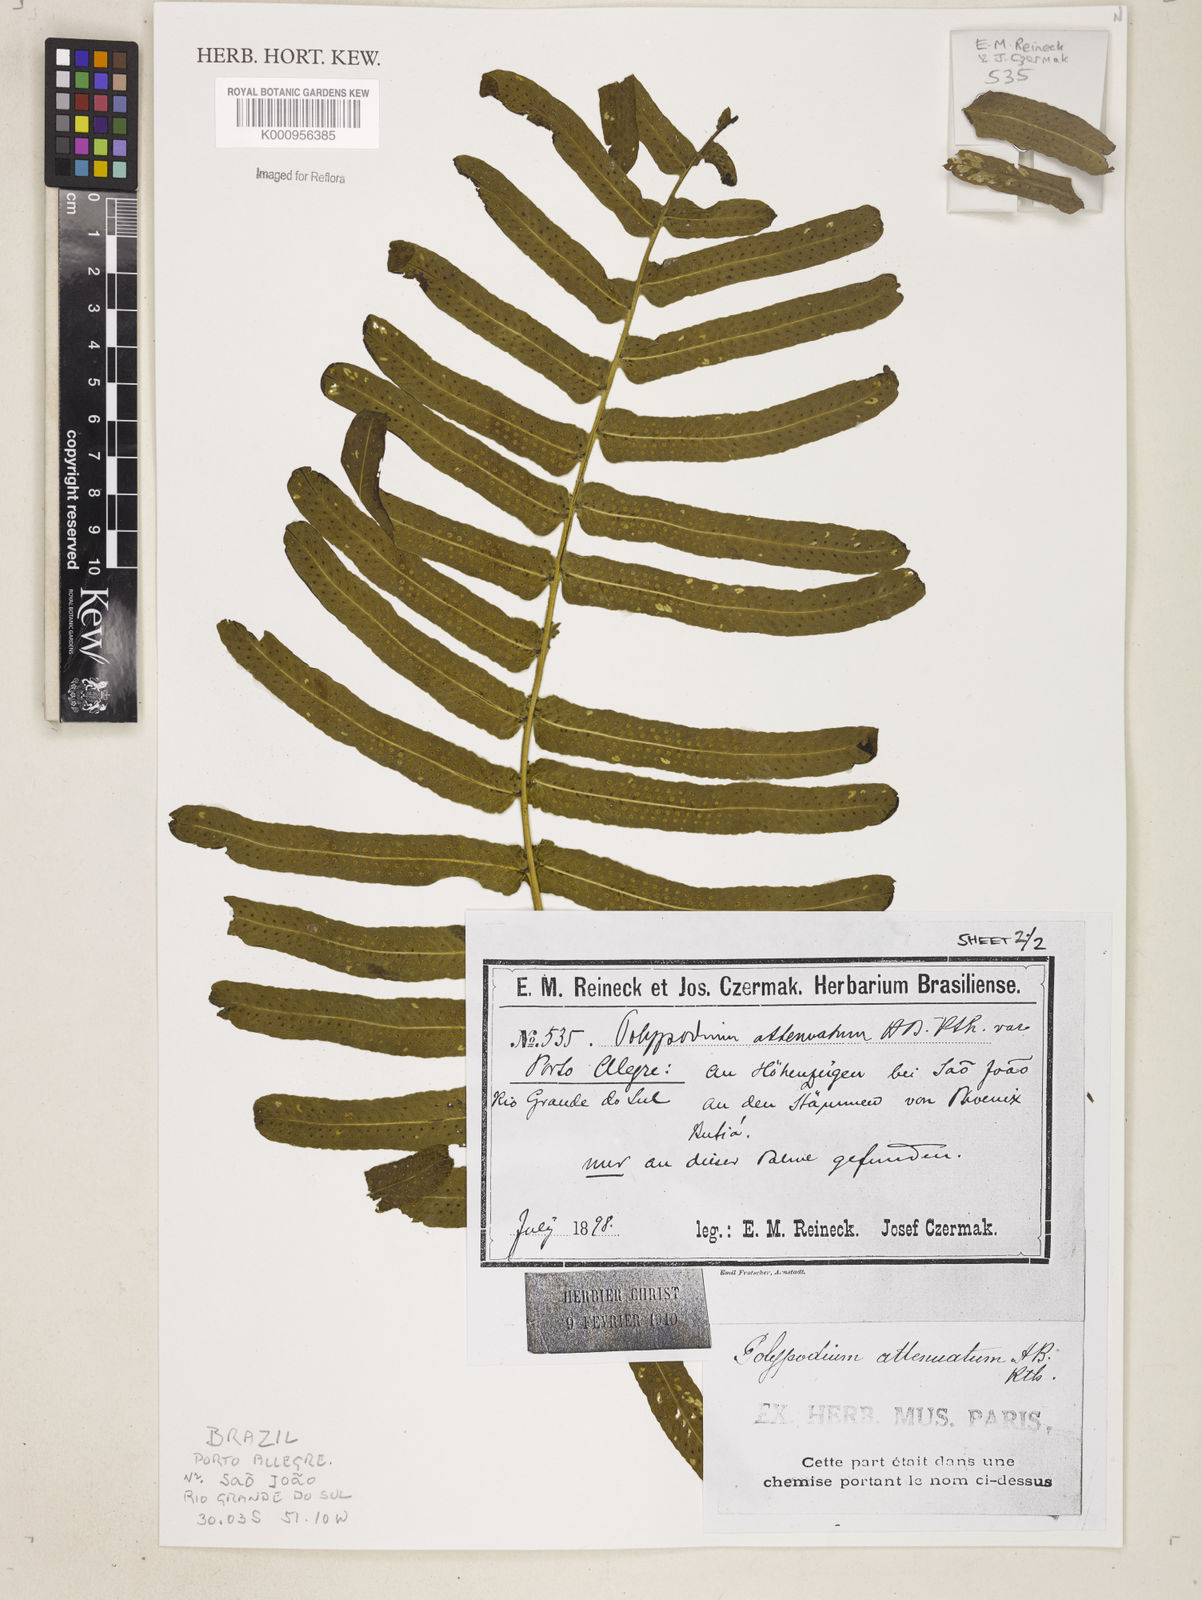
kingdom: Plantae
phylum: Tracheophyta
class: Polypodiopsida
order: Polypodiales
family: Polypodiaceae
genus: Serpocaulon
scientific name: Serpocaulon triseriale
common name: Angle-vein fern
